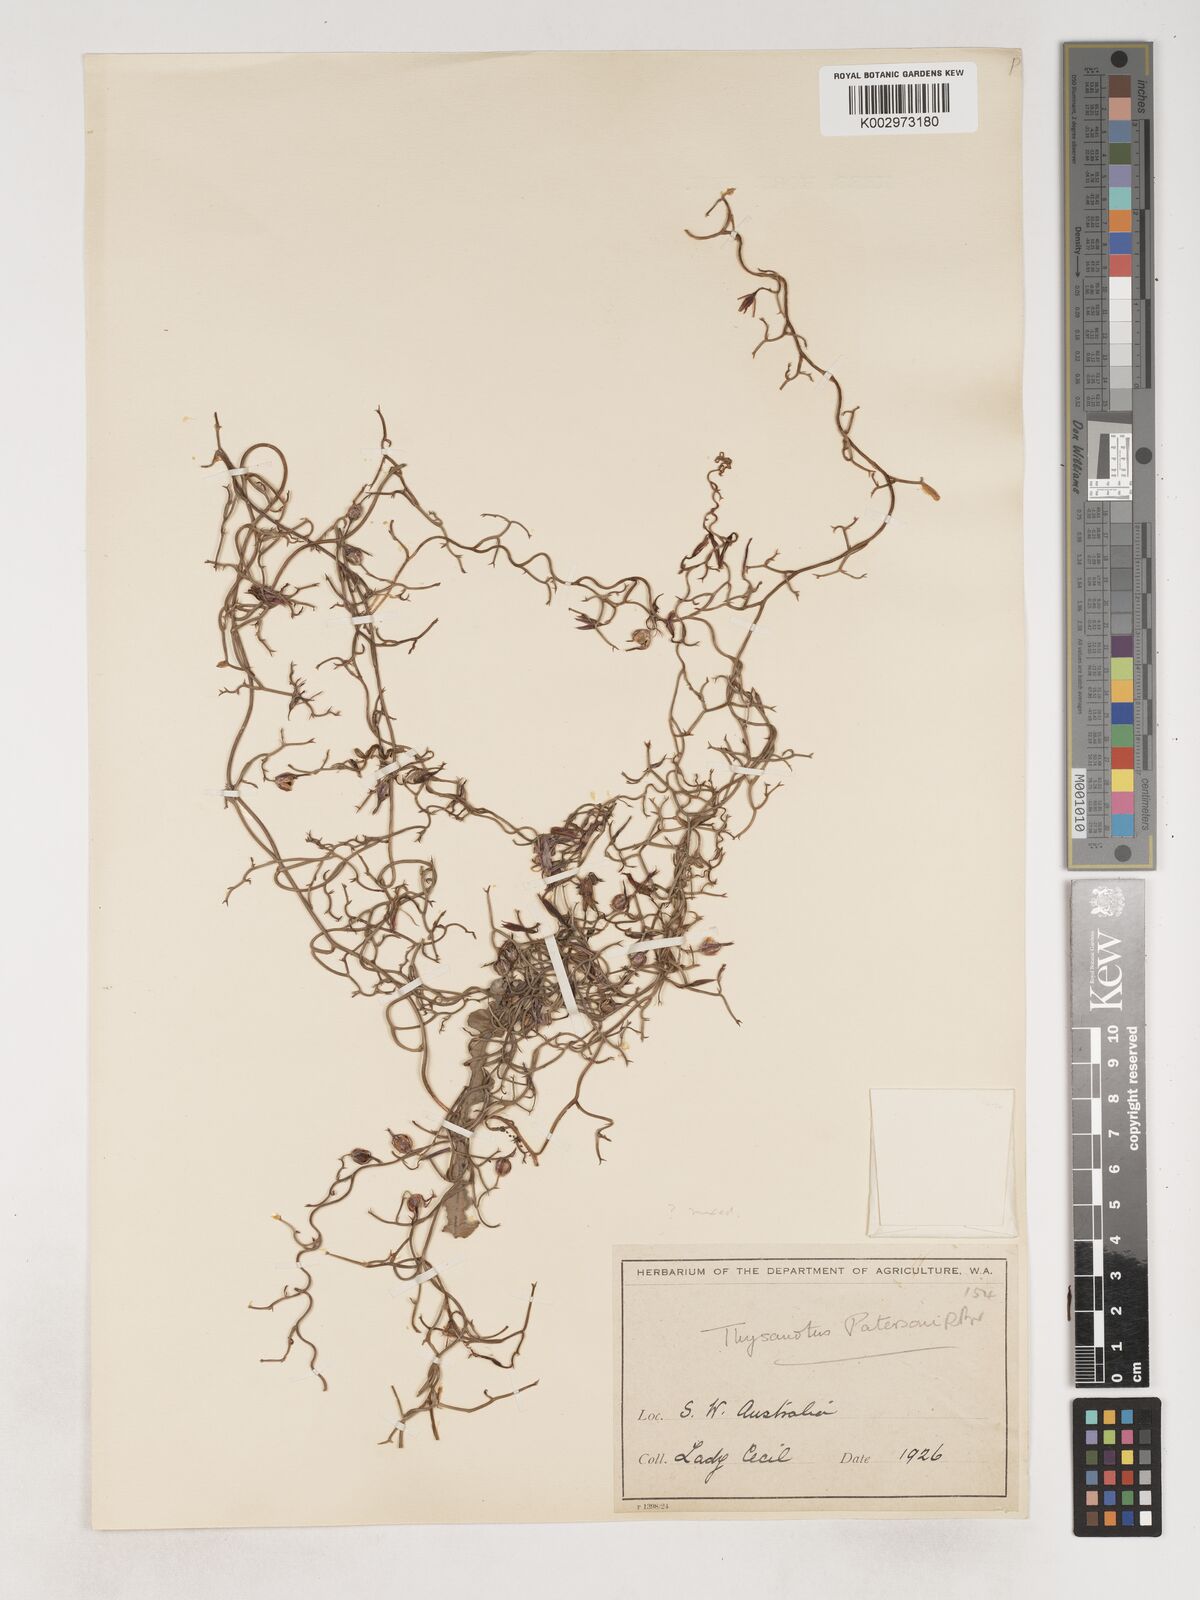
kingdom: Plantae
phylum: Tracheophyta
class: Liliopsida
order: Asparagales
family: Asparagaceae
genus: Thysanotus
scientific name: Thysanotus patersonii
